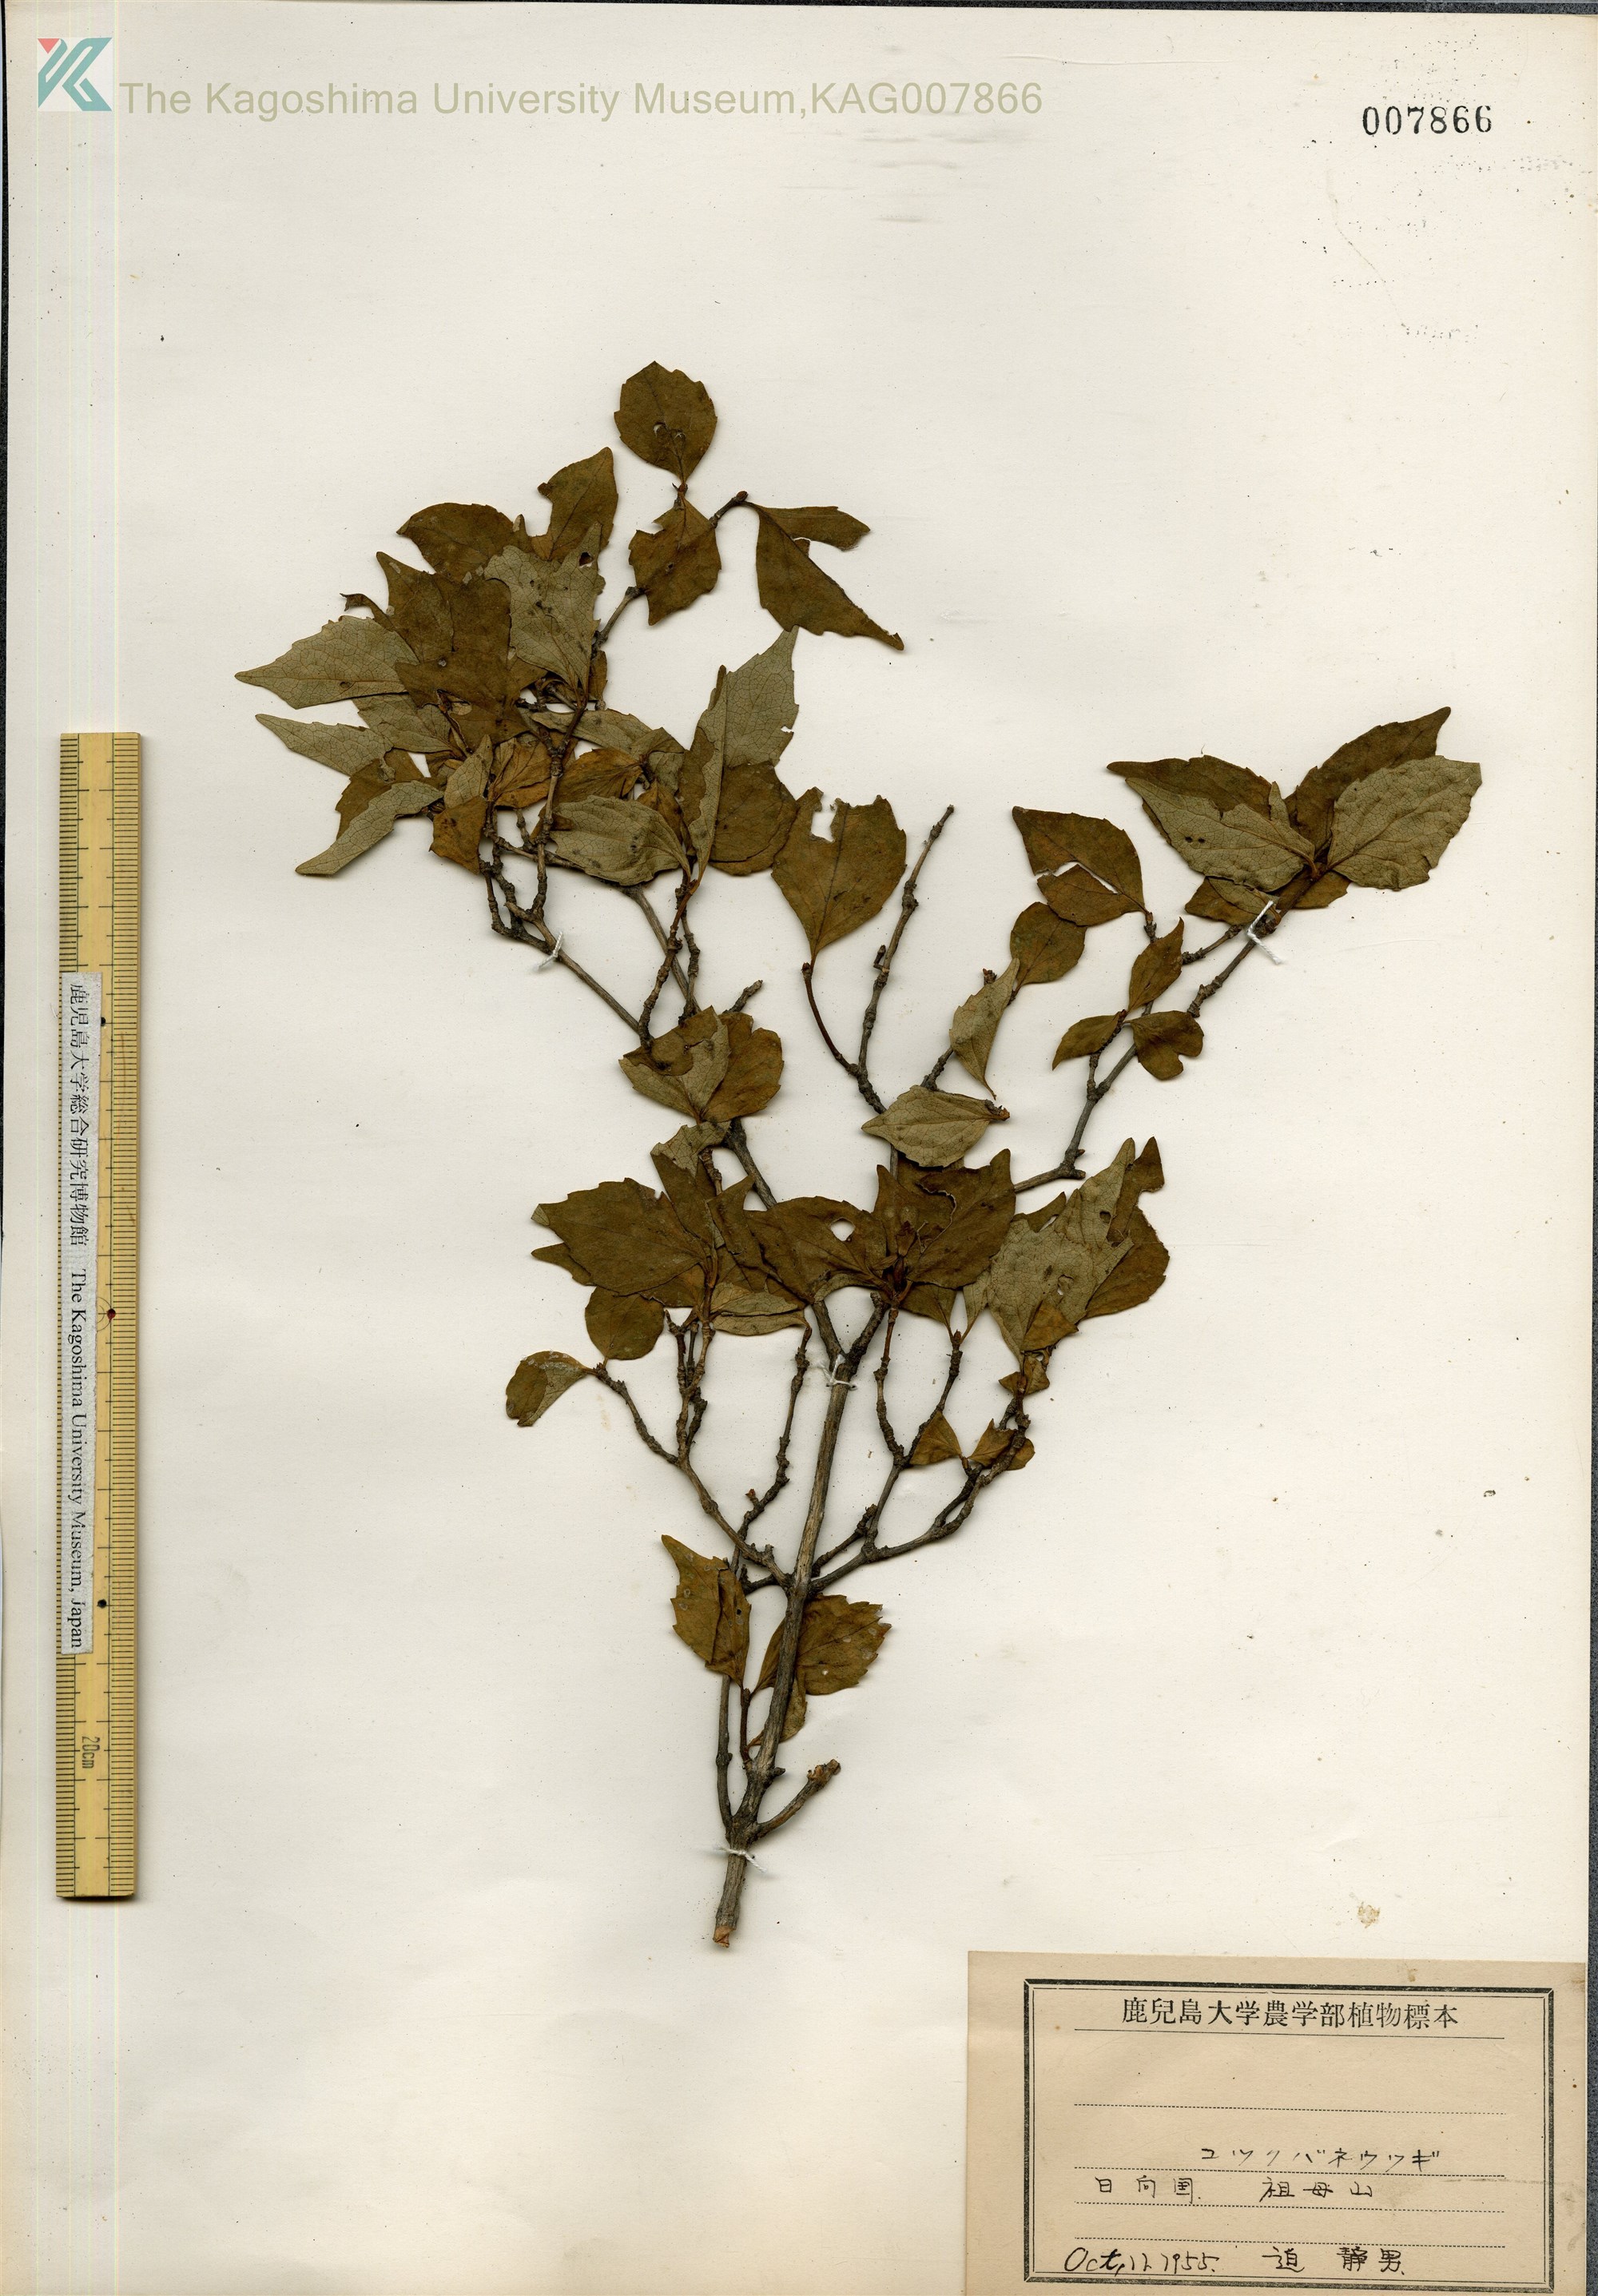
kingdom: Plantae
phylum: Tracheophyta
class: Magnoliopsida
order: Dipsacales
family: Caprifoliaceae
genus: Diabelia
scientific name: Diabelia serrata
